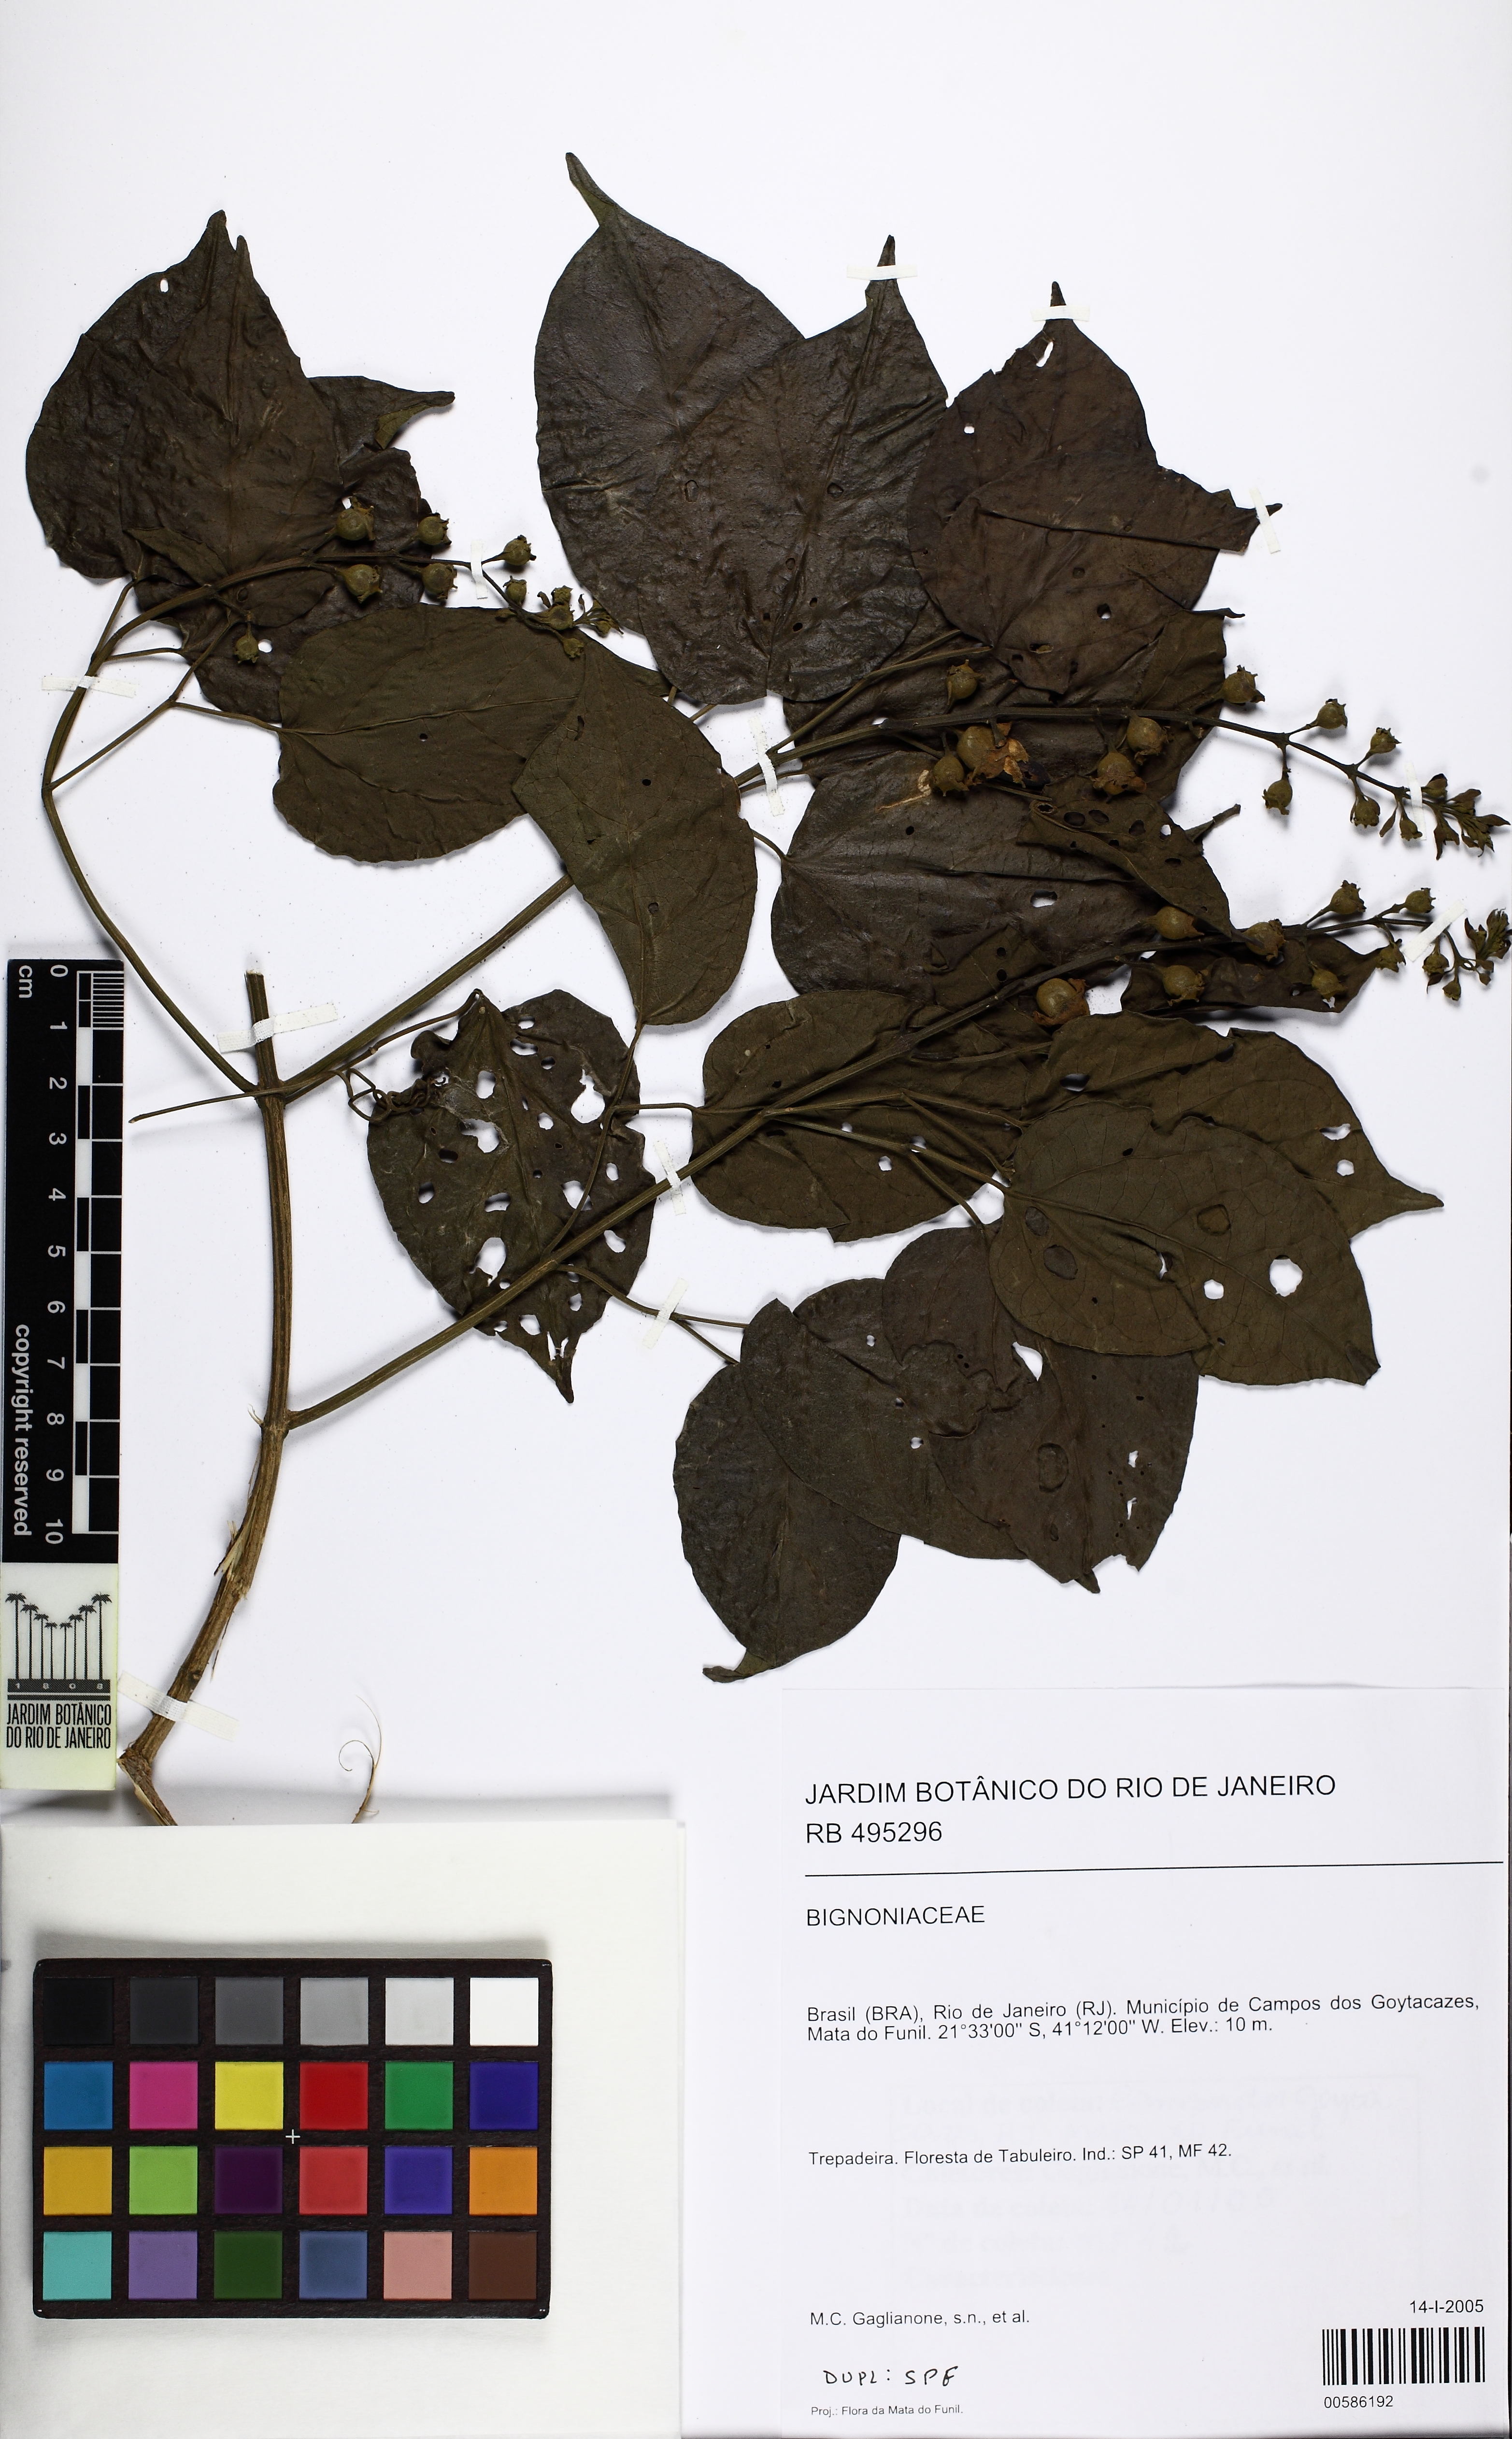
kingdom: Plantae
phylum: Tracheophyta
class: Magnoliopsida
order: Lamiales
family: Bignoniaceae
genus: Amphilophium
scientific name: Amphilophium dusenianum
